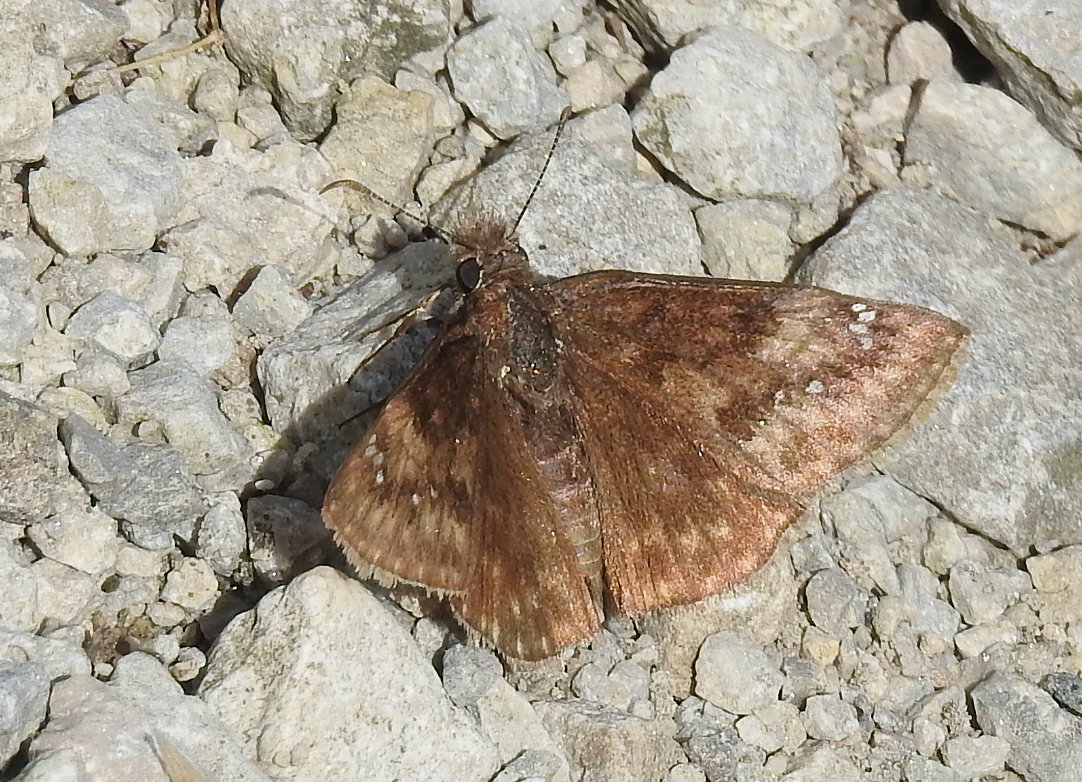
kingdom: Animalia
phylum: Arthropoda
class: Insecta
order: Lepidoptera
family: Hesperiidae
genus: Gesta
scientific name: Gesta
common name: Wild Indigo Duskywing
